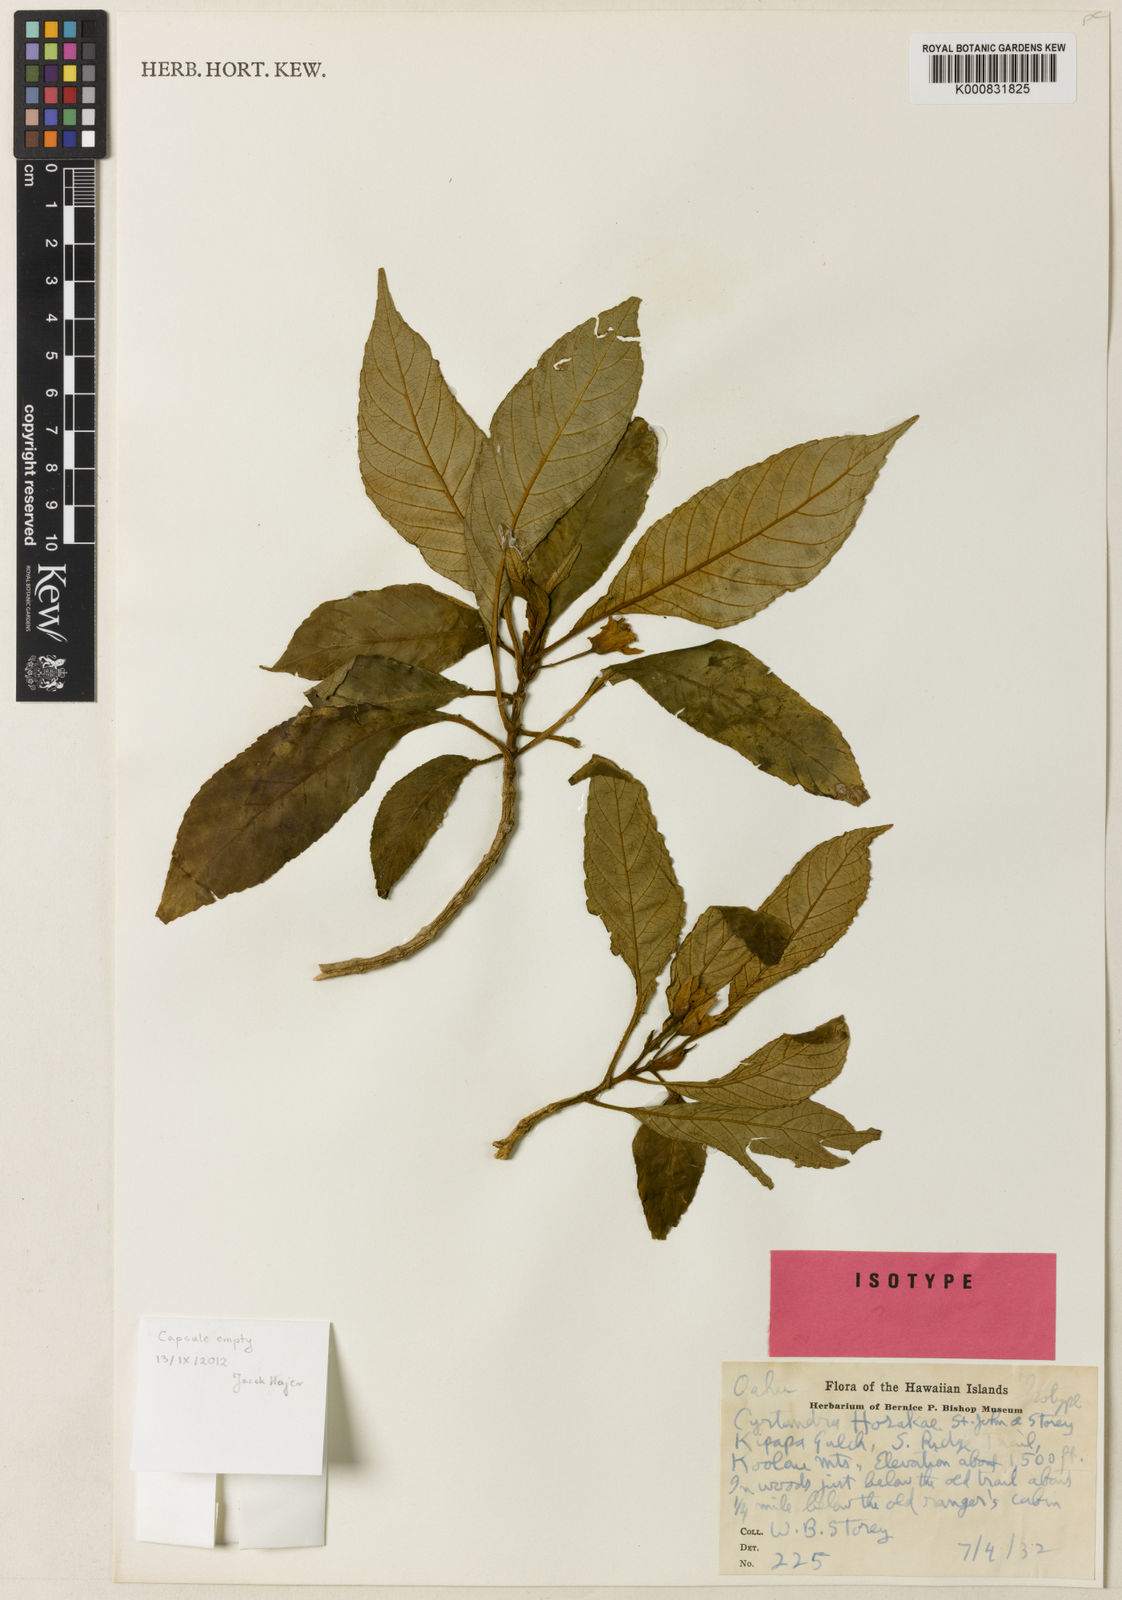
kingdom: Plantae
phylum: Tracheophyta
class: Magnoliopsida
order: Lamiales
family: Gesneriaceae
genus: Cyrtandra
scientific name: Cyrtandra hosakae
